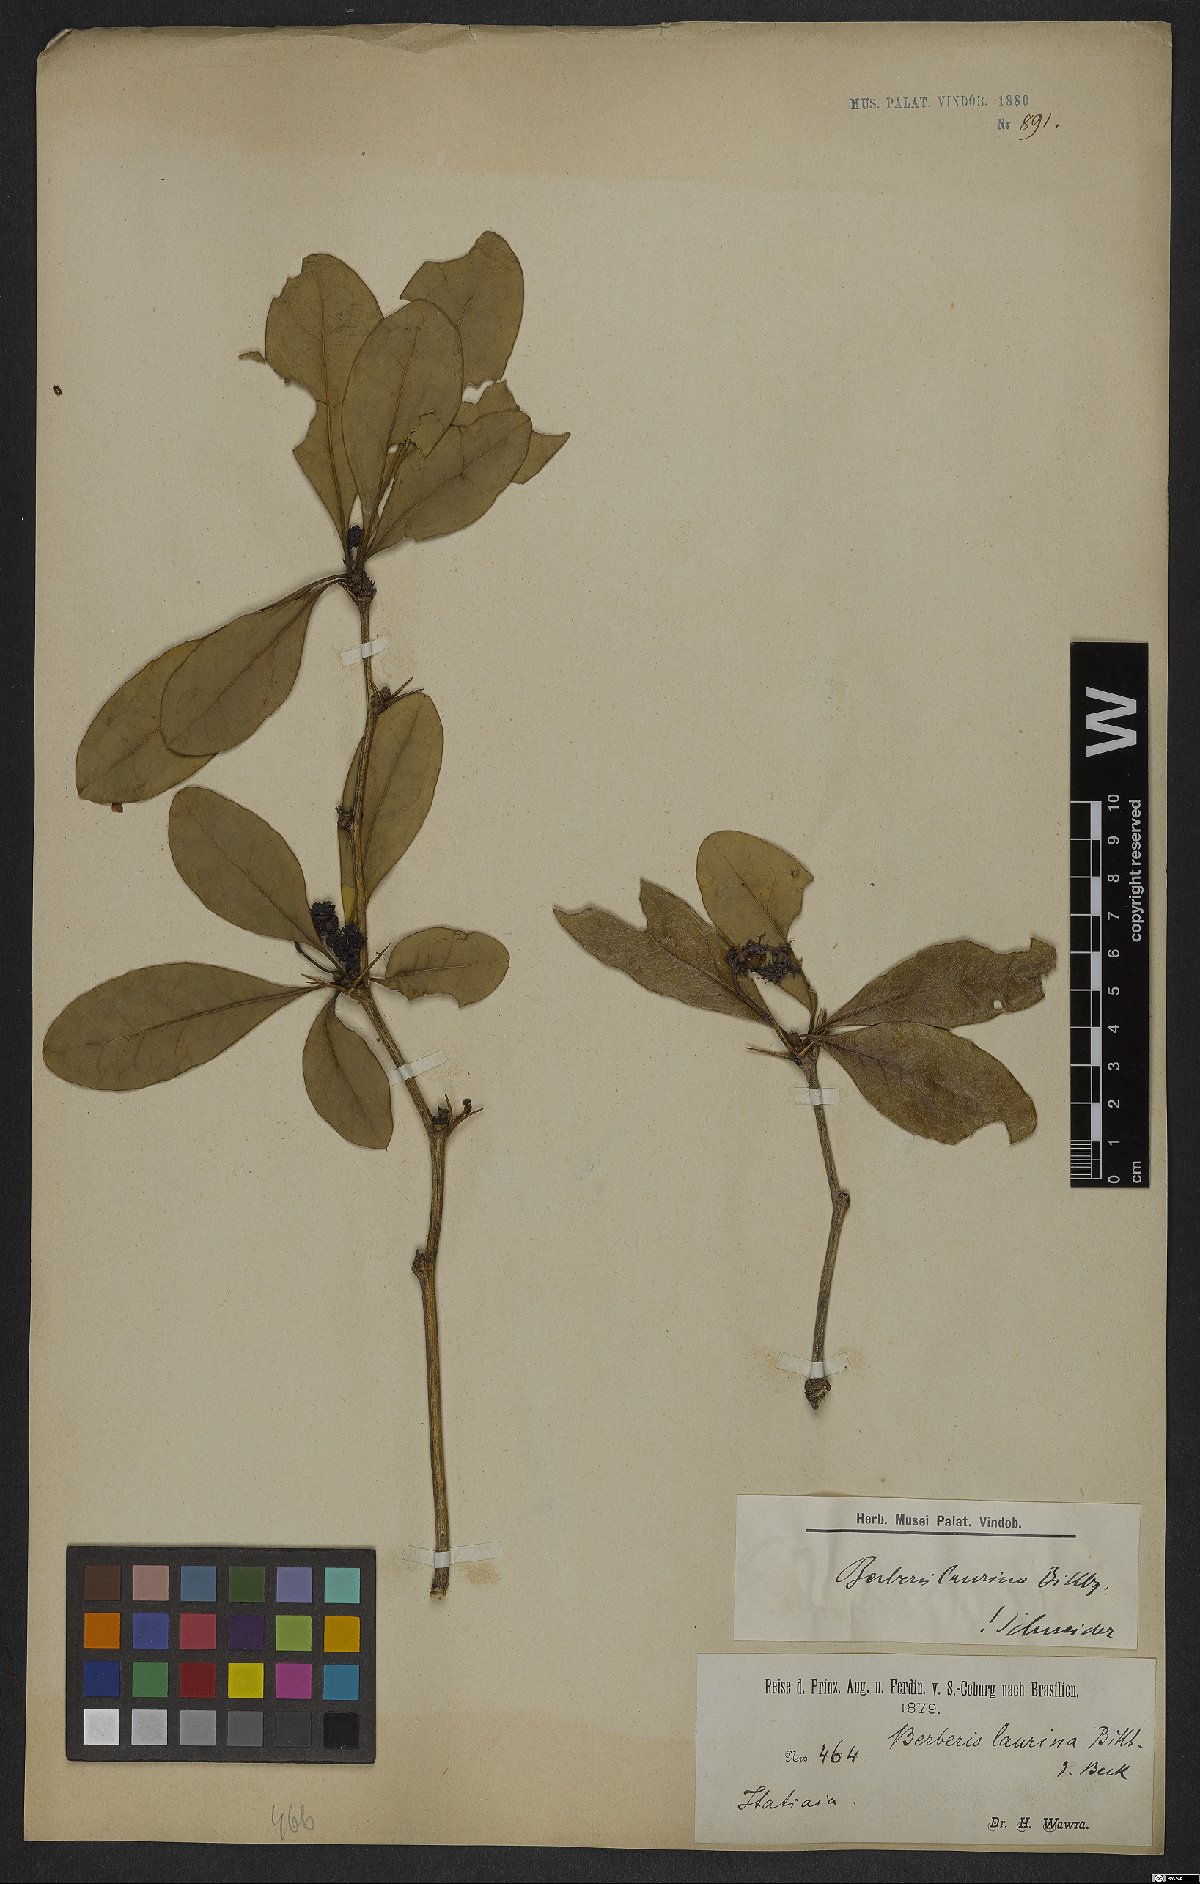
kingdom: Plantae
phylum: Tracheophyta
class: Magnoliopsida
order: Ranunculales
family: Berberidaceae
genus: Berberis
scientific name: Berberis laurina
